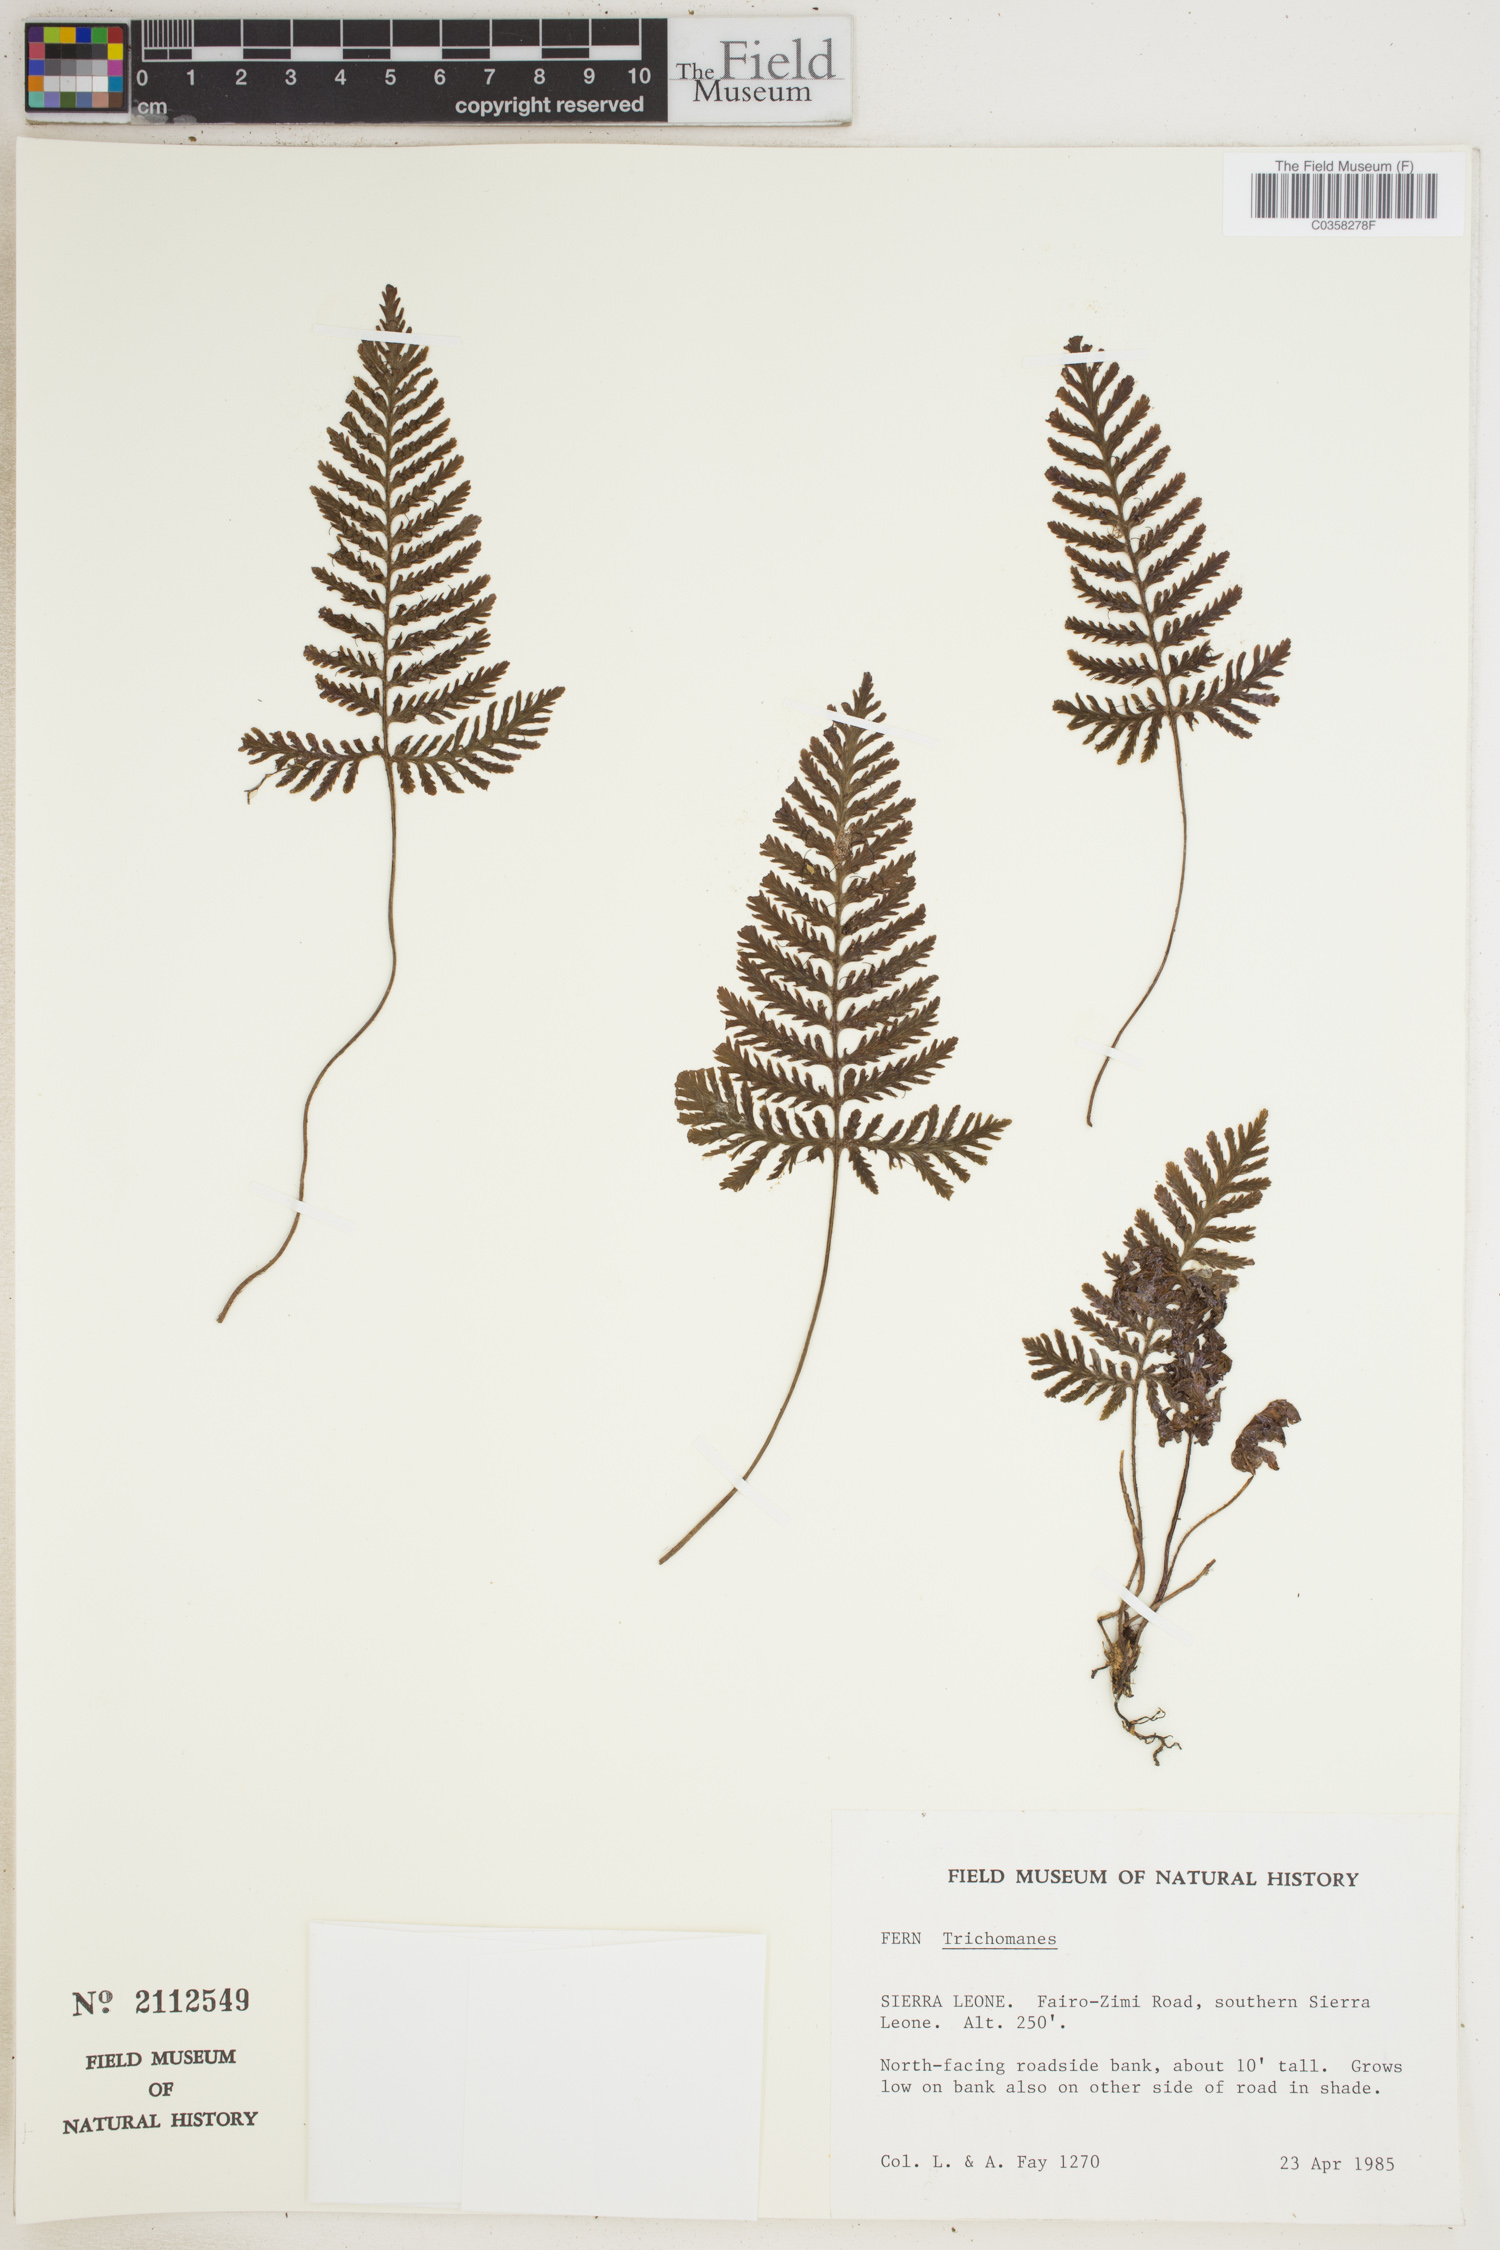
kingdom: Plantae
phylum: Tracheophyta
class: Polypodiopsida
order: Hymenophyllales
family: Hymenophyllaceae
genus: Trichomanes
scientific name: Trichomanes
